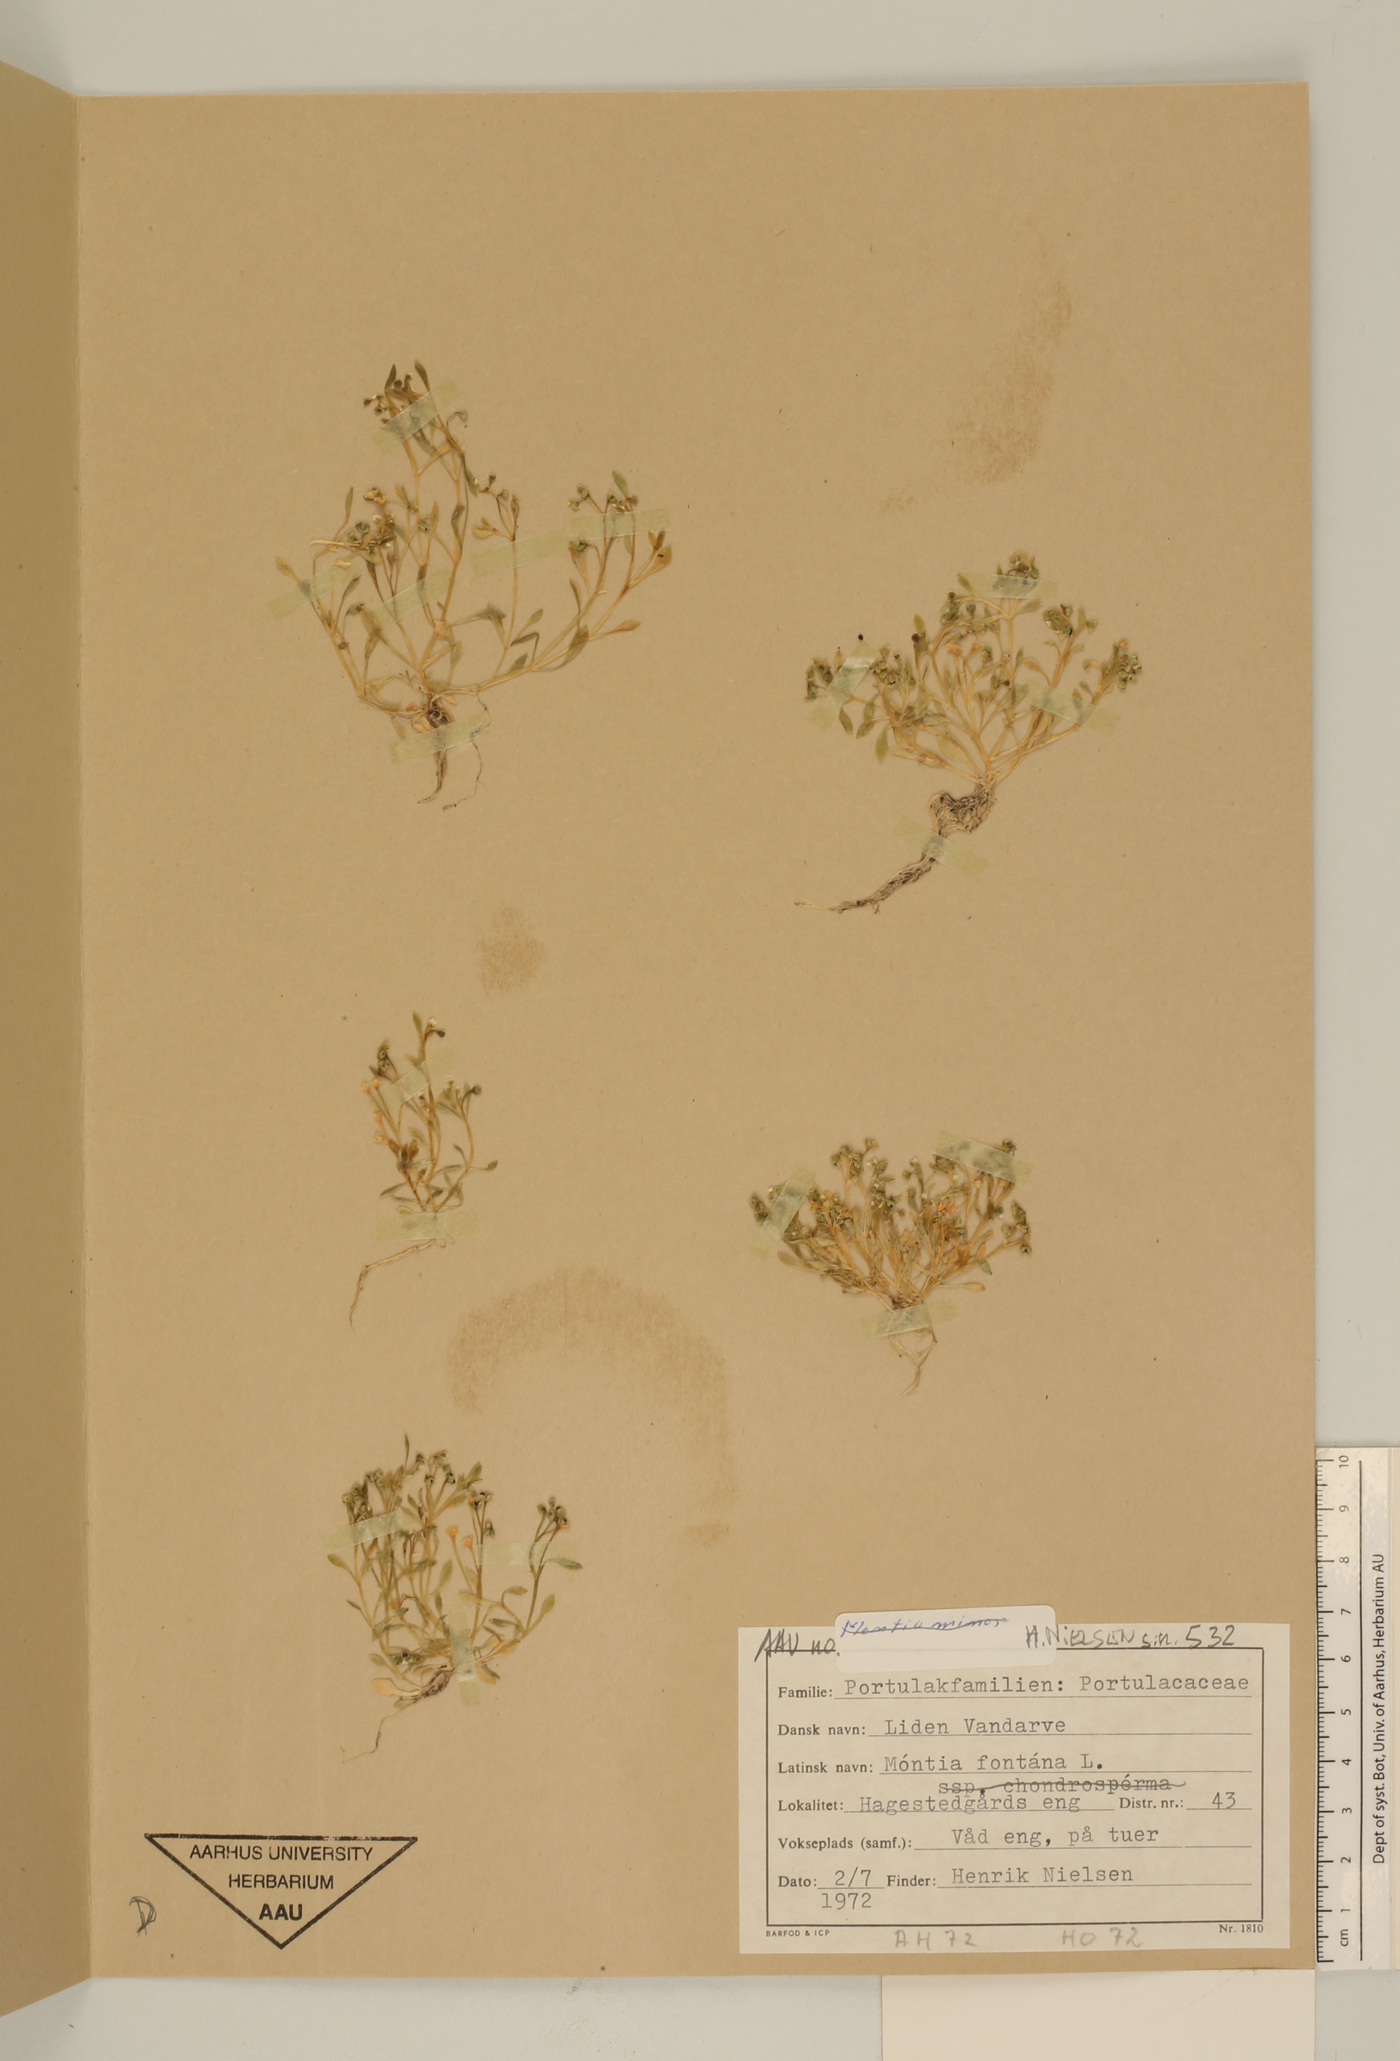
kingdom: Plantae
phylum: Tracheophyta
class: Magnoliopsida
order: Caryophyllales
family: Montiaceae
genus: Montia
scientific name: Montia fontana
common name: Blinks
